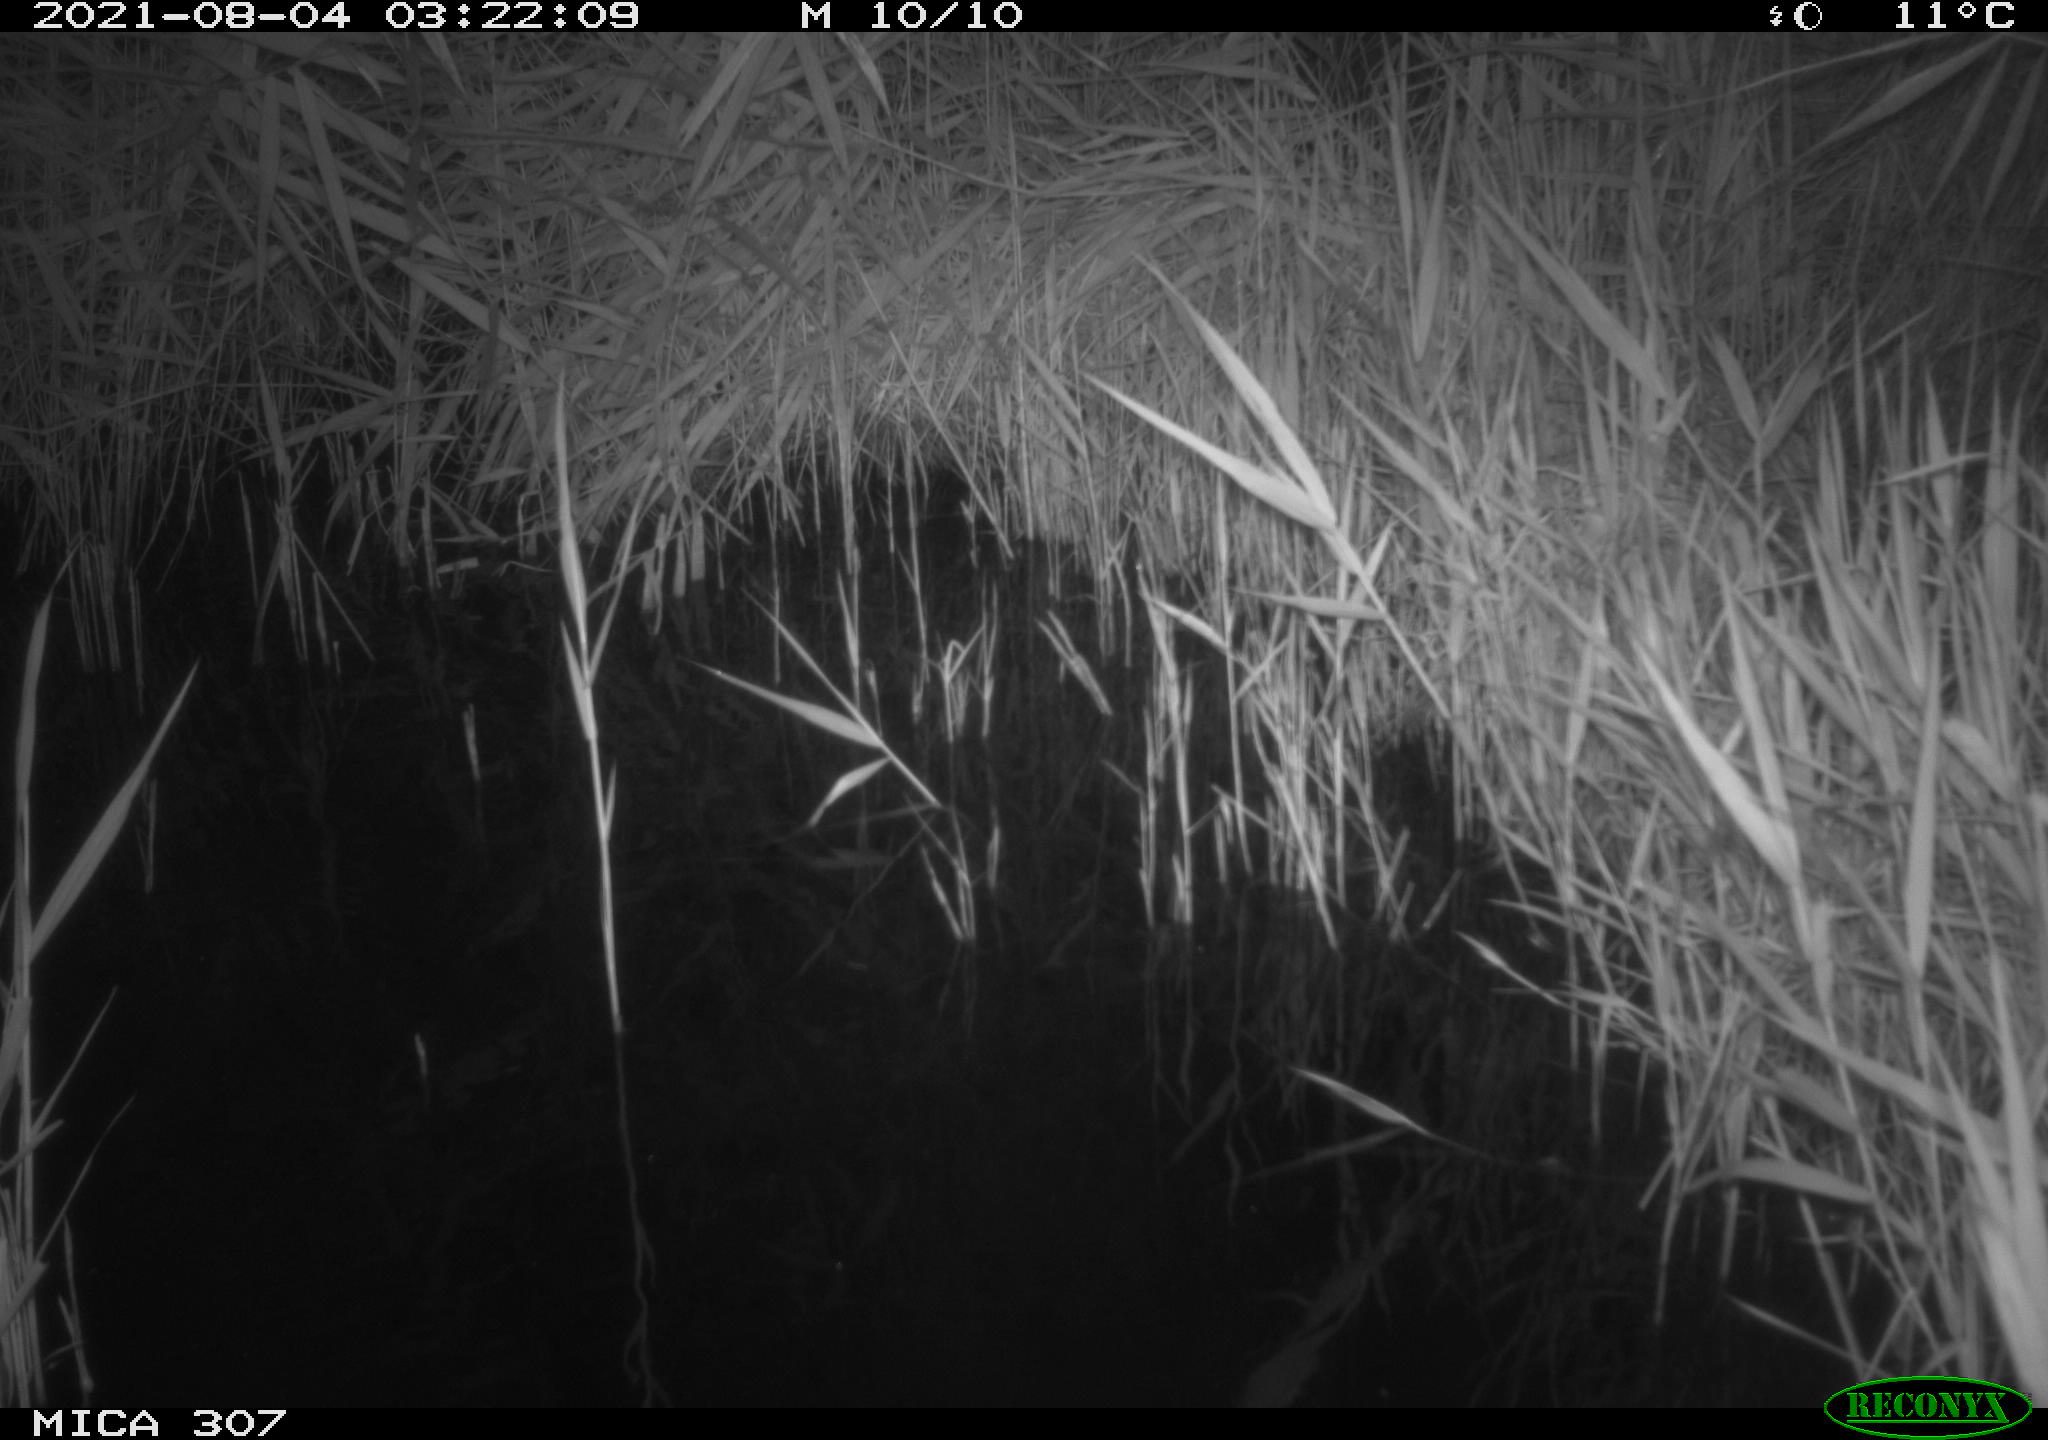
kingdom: Animalia
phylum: Chordata
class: Mammalia
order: Rodentia
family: Muridae
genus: Rattus
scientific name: Rattus norvegicus
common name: Brown rat
